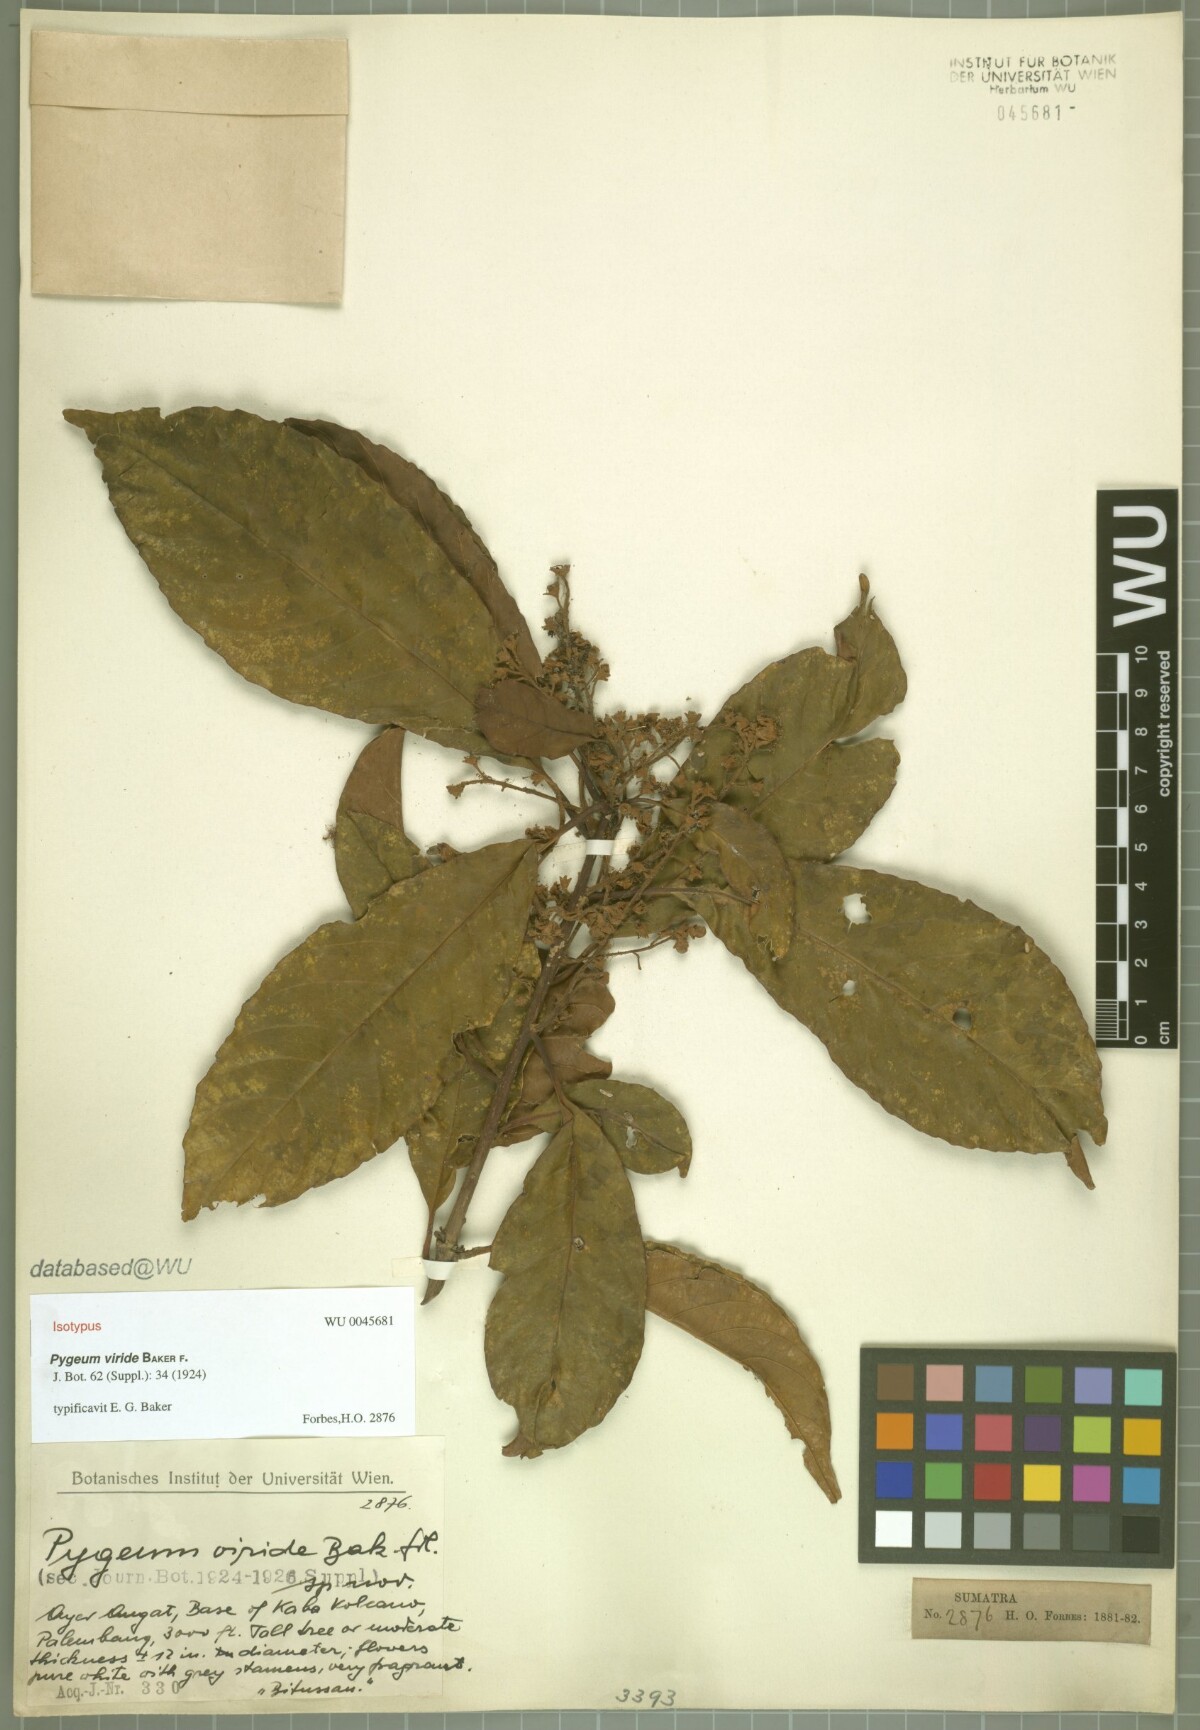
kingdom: Plantae
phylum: Tracheophyta
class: Magnoliopsida
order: Ericales
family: Symplocaceae
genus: Symplocos
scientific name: Symplocos odoratissima
